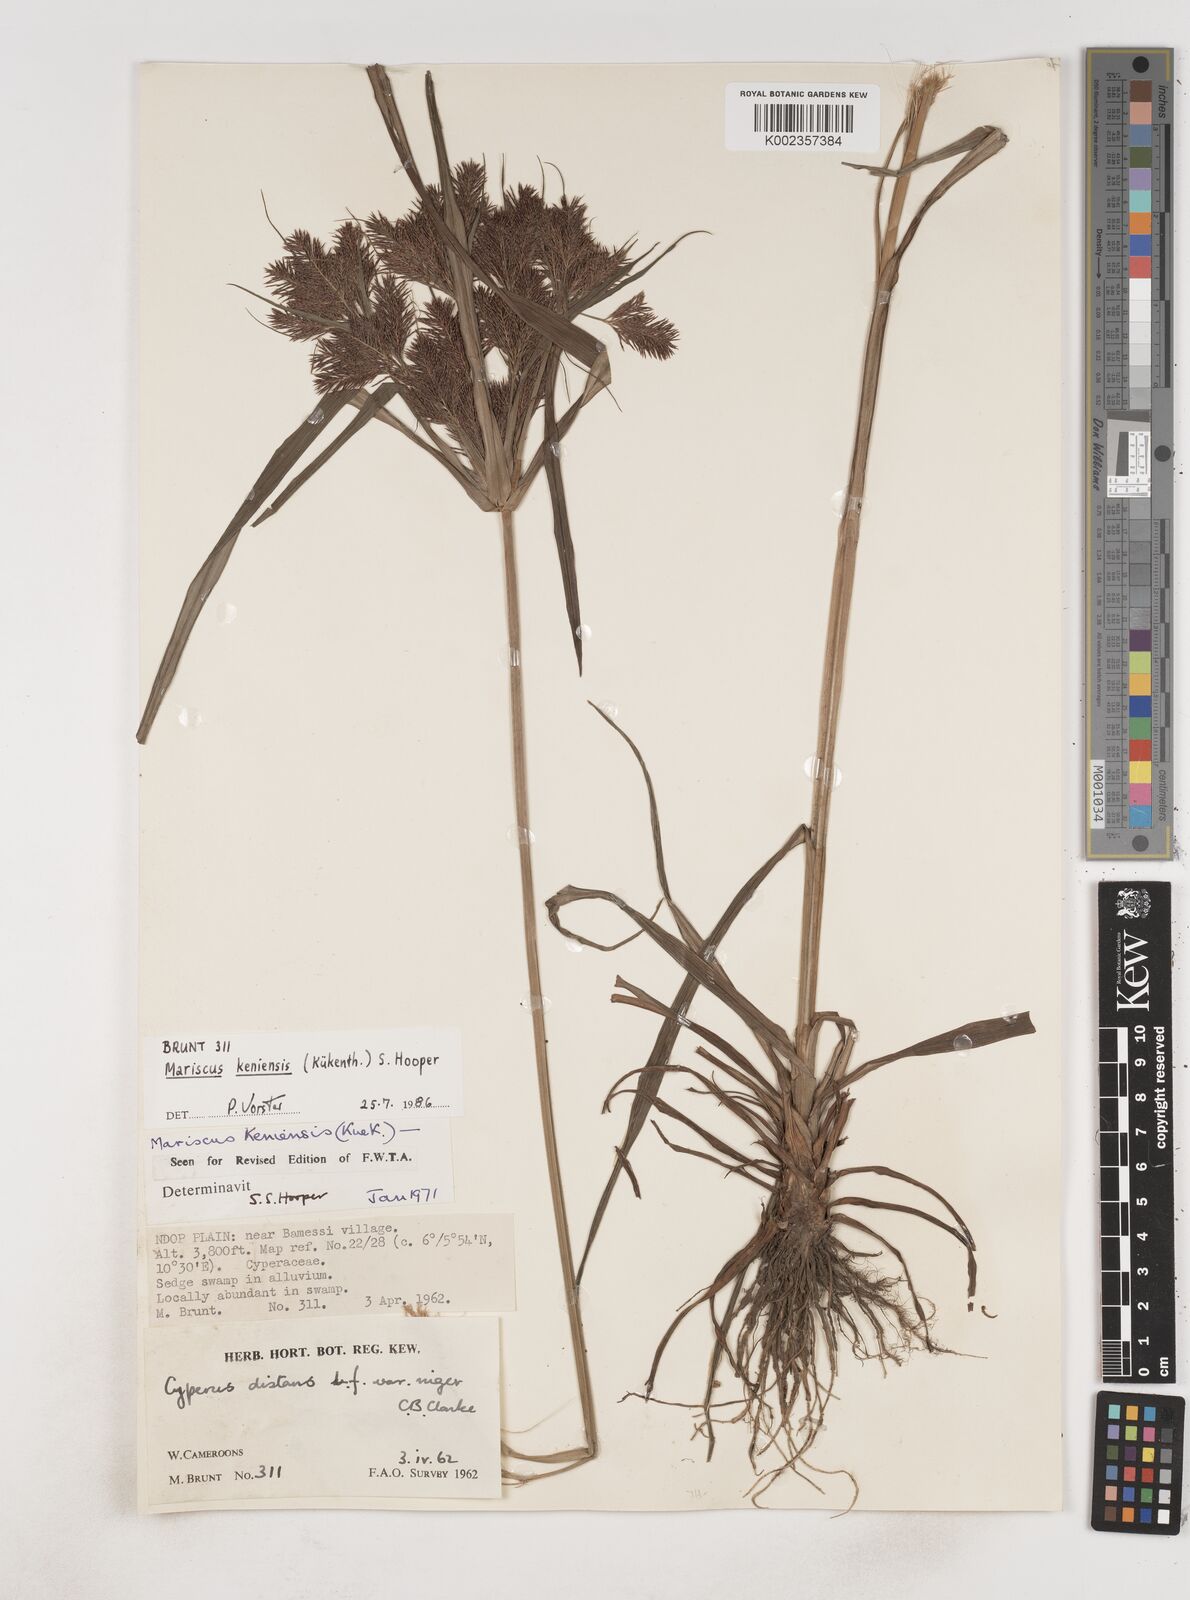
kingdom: Plantae
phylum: Tracheophyta
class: Liliopsida
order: Poales
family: Cyperaceae
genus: Cyperus
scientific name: Cyperus distans
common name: Slender cyperus
